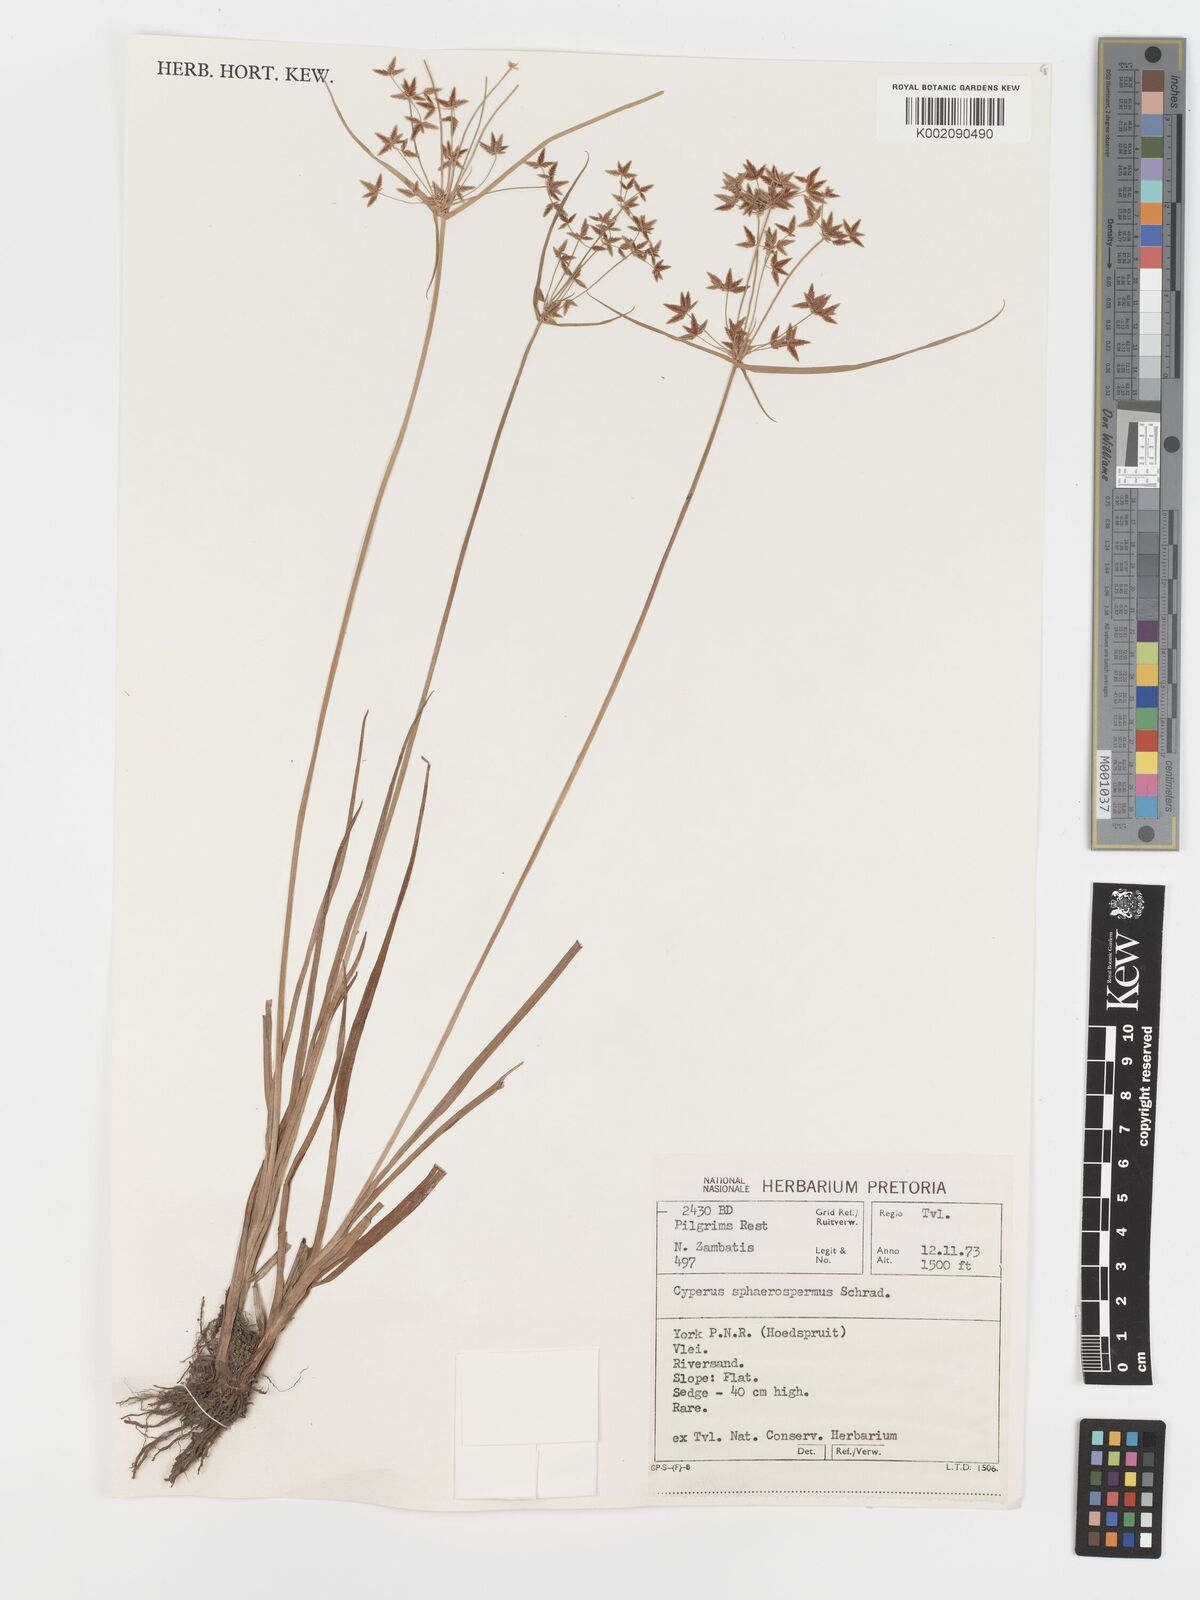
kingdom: Plantae
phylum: Tracheophyta
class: Liliopsida
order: Poales
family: Cyperaceae
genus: Cyperus
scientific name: Cyperus sphaerospermus
